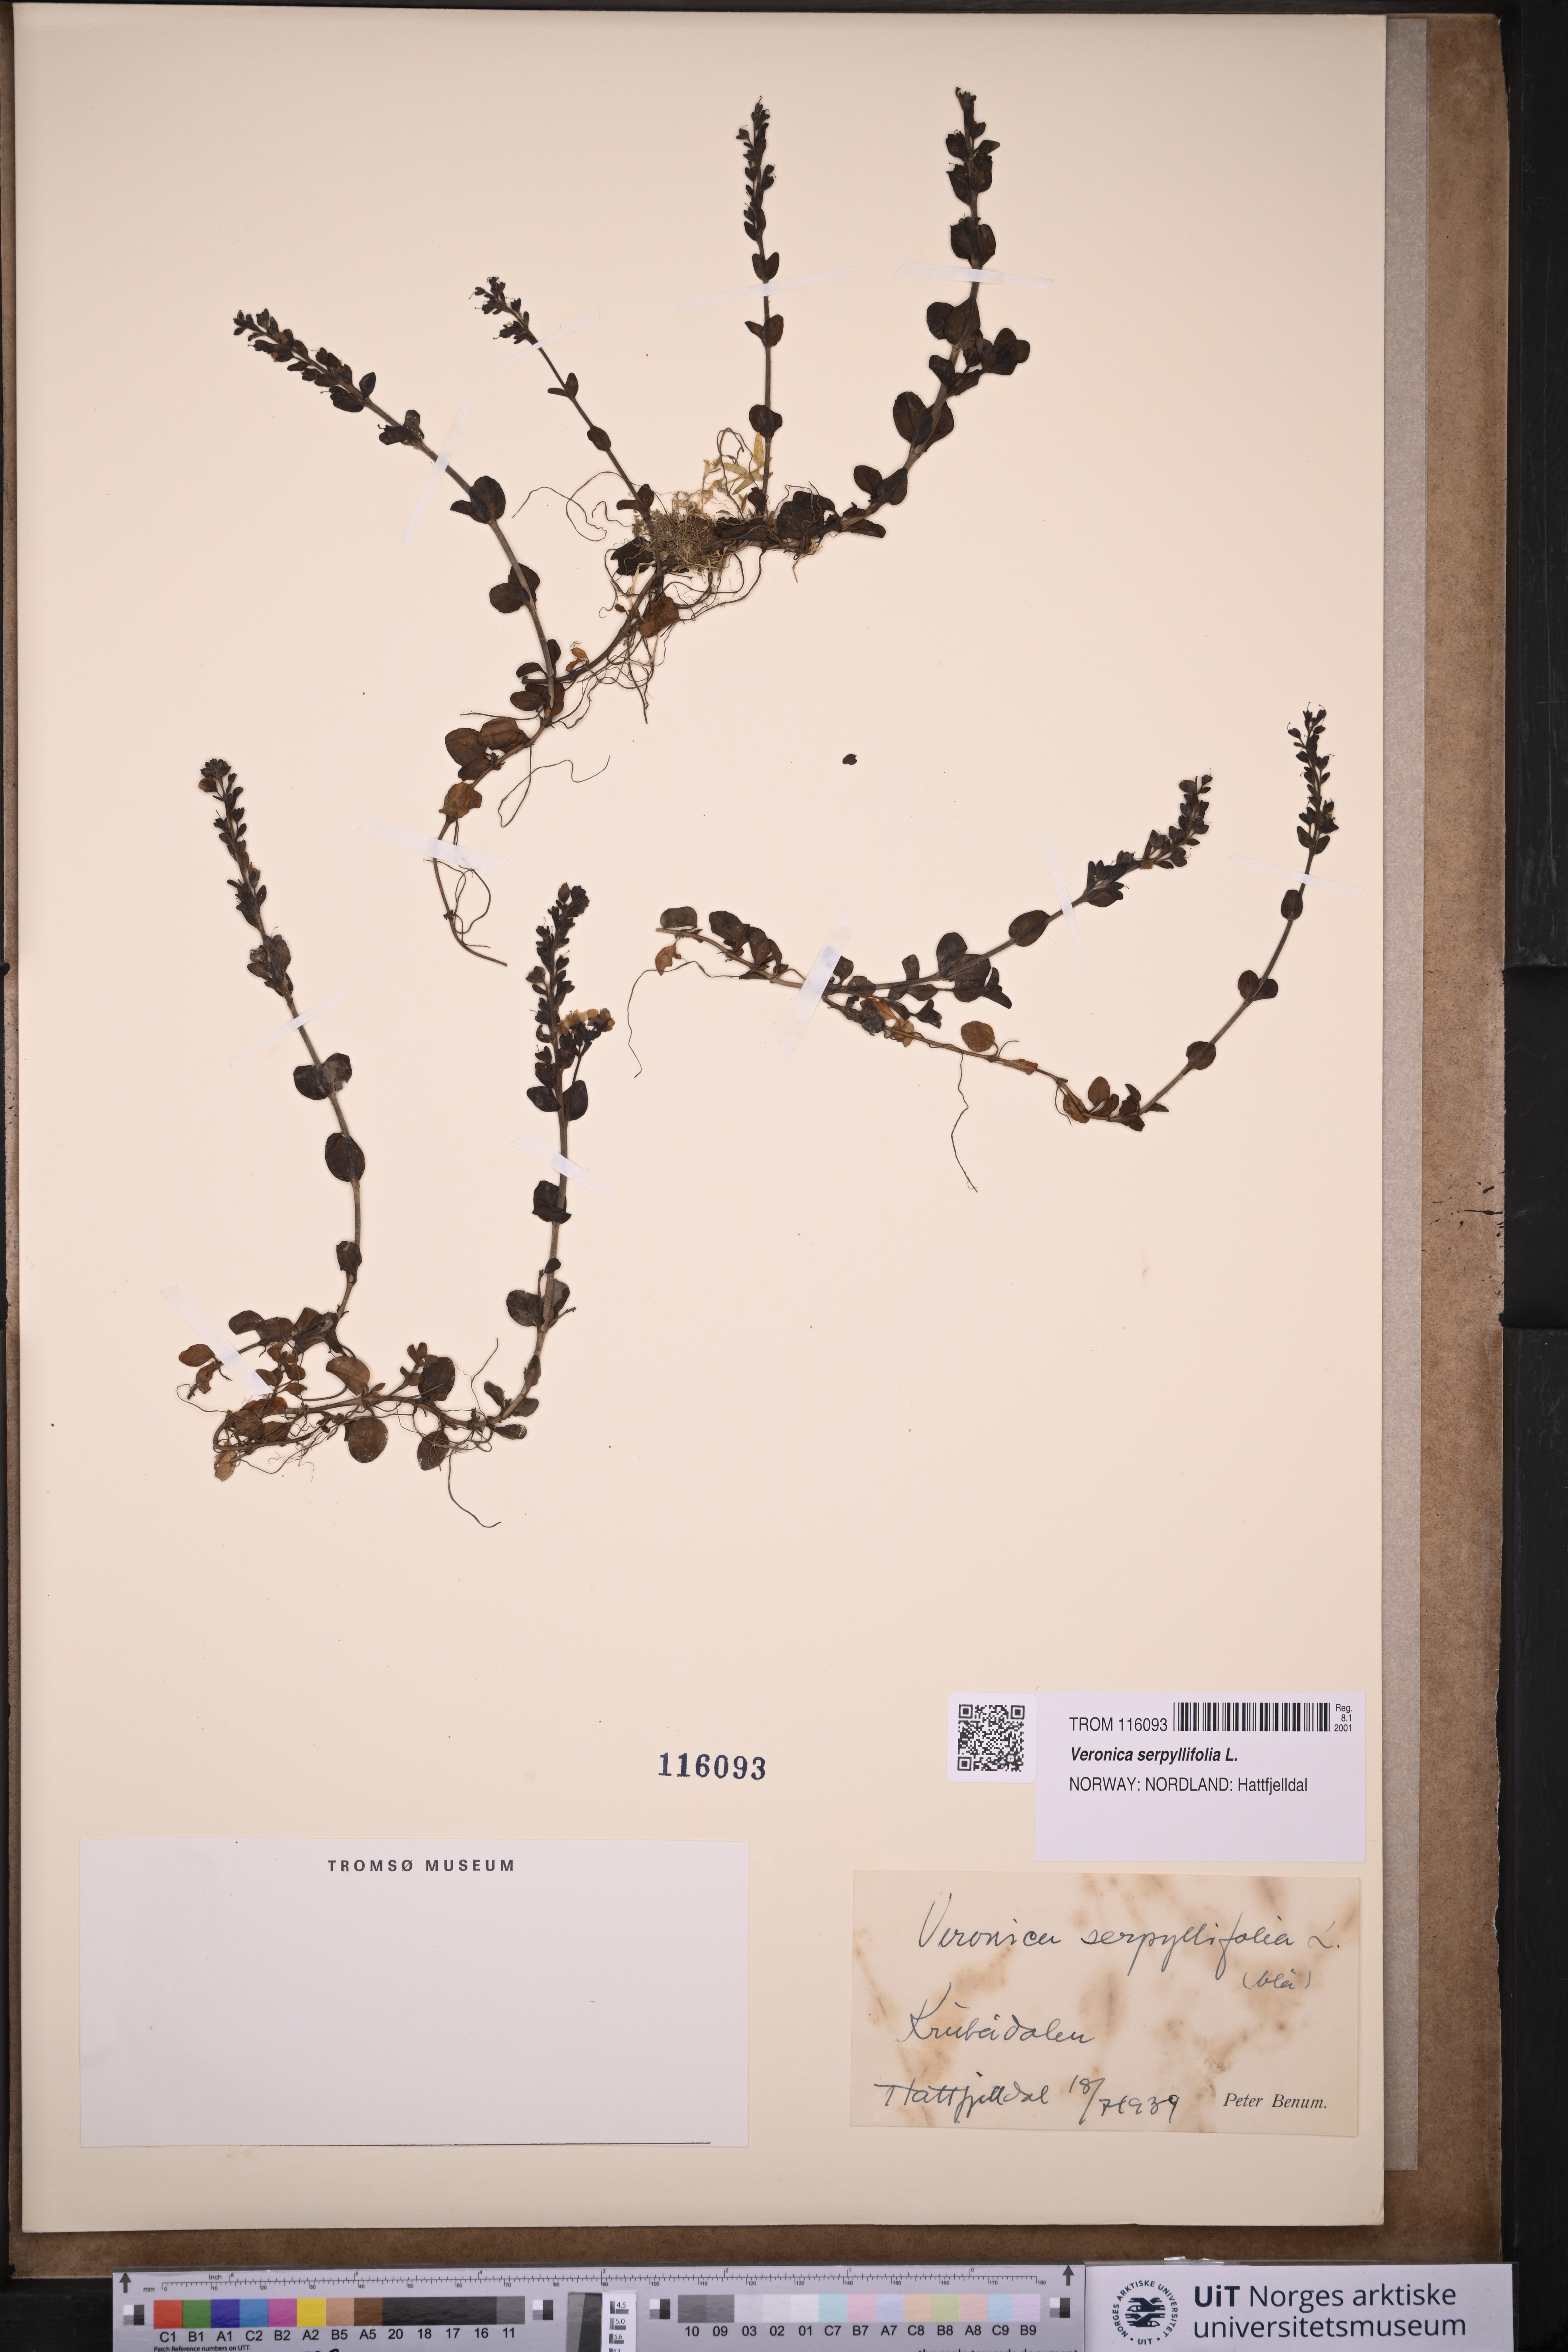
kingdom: Plantae
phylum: Tracheophyta
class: Magnoliopsida
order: Lamiales
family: Plantaginaceae
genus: Veronica
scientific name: Veronica serpyllifolia
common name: Thyme-leaved speedwell
